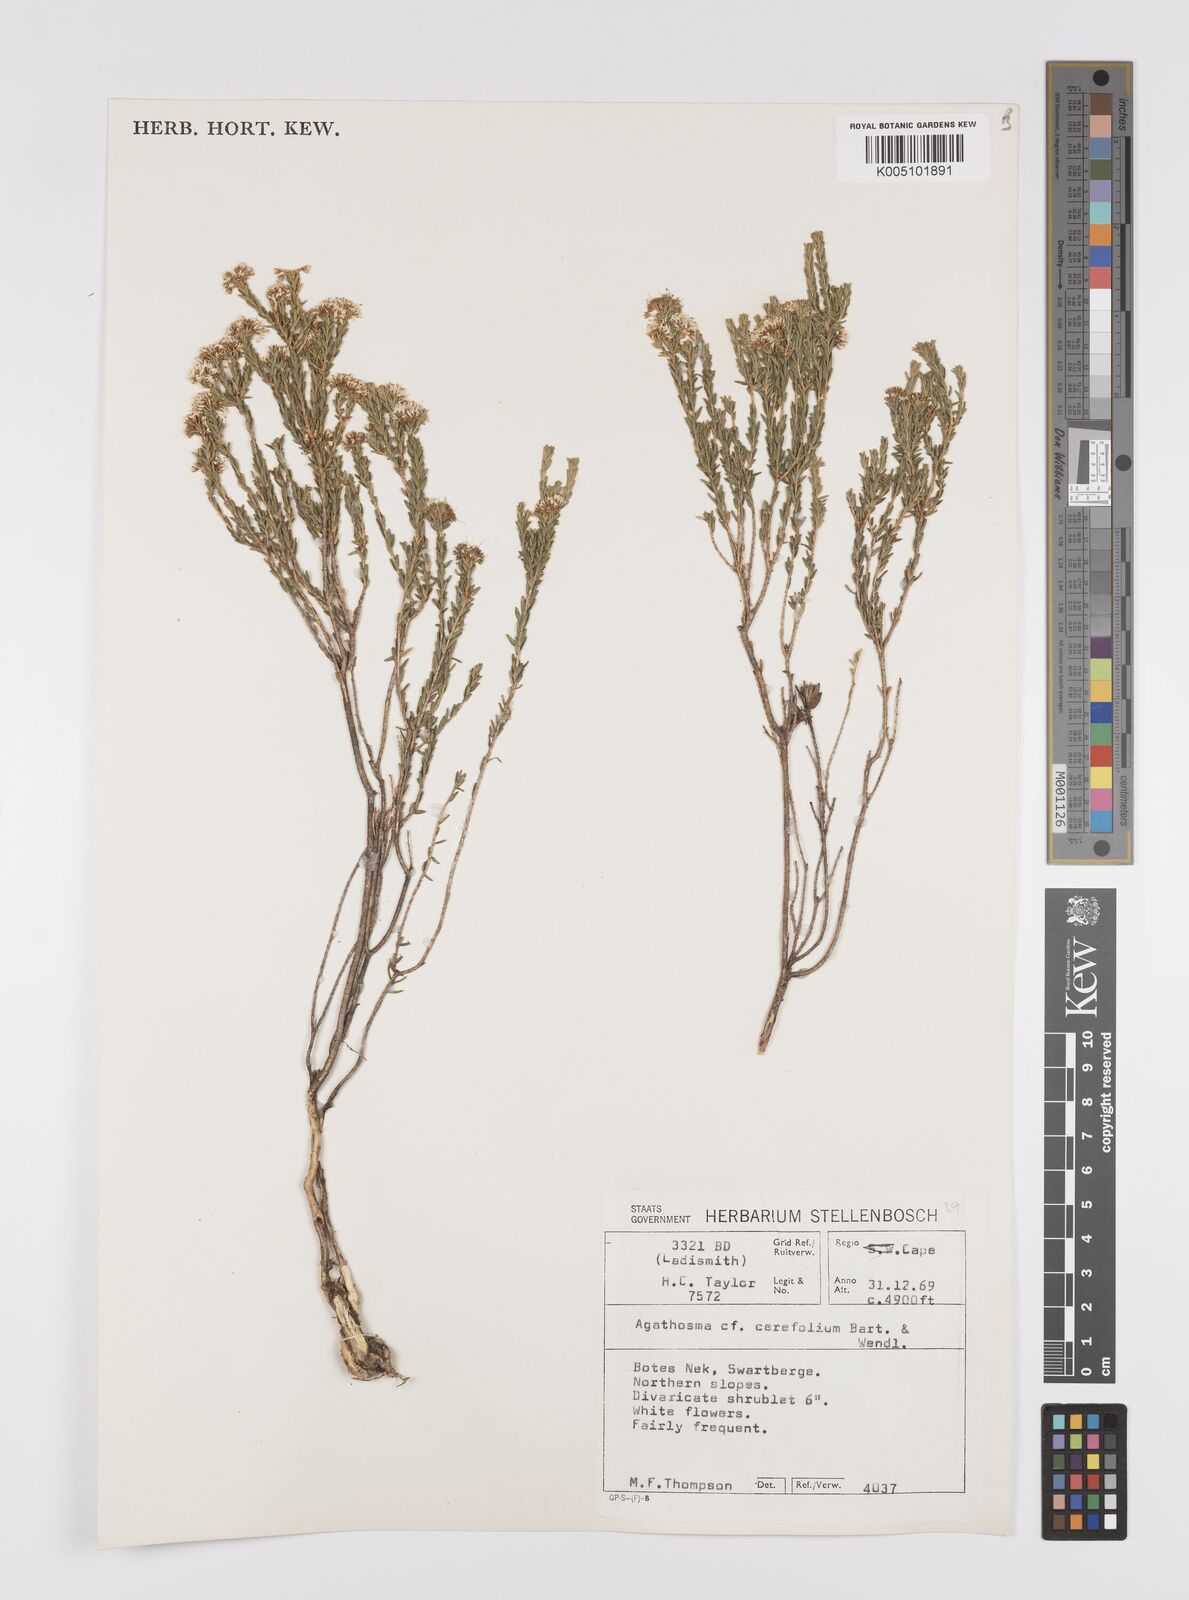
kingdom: Plantae
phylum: Tracheophyta
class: Magnoliopsida
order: Sapindales
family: Rutaceae
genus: Agathosma
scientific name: Agathosma cerefolia
